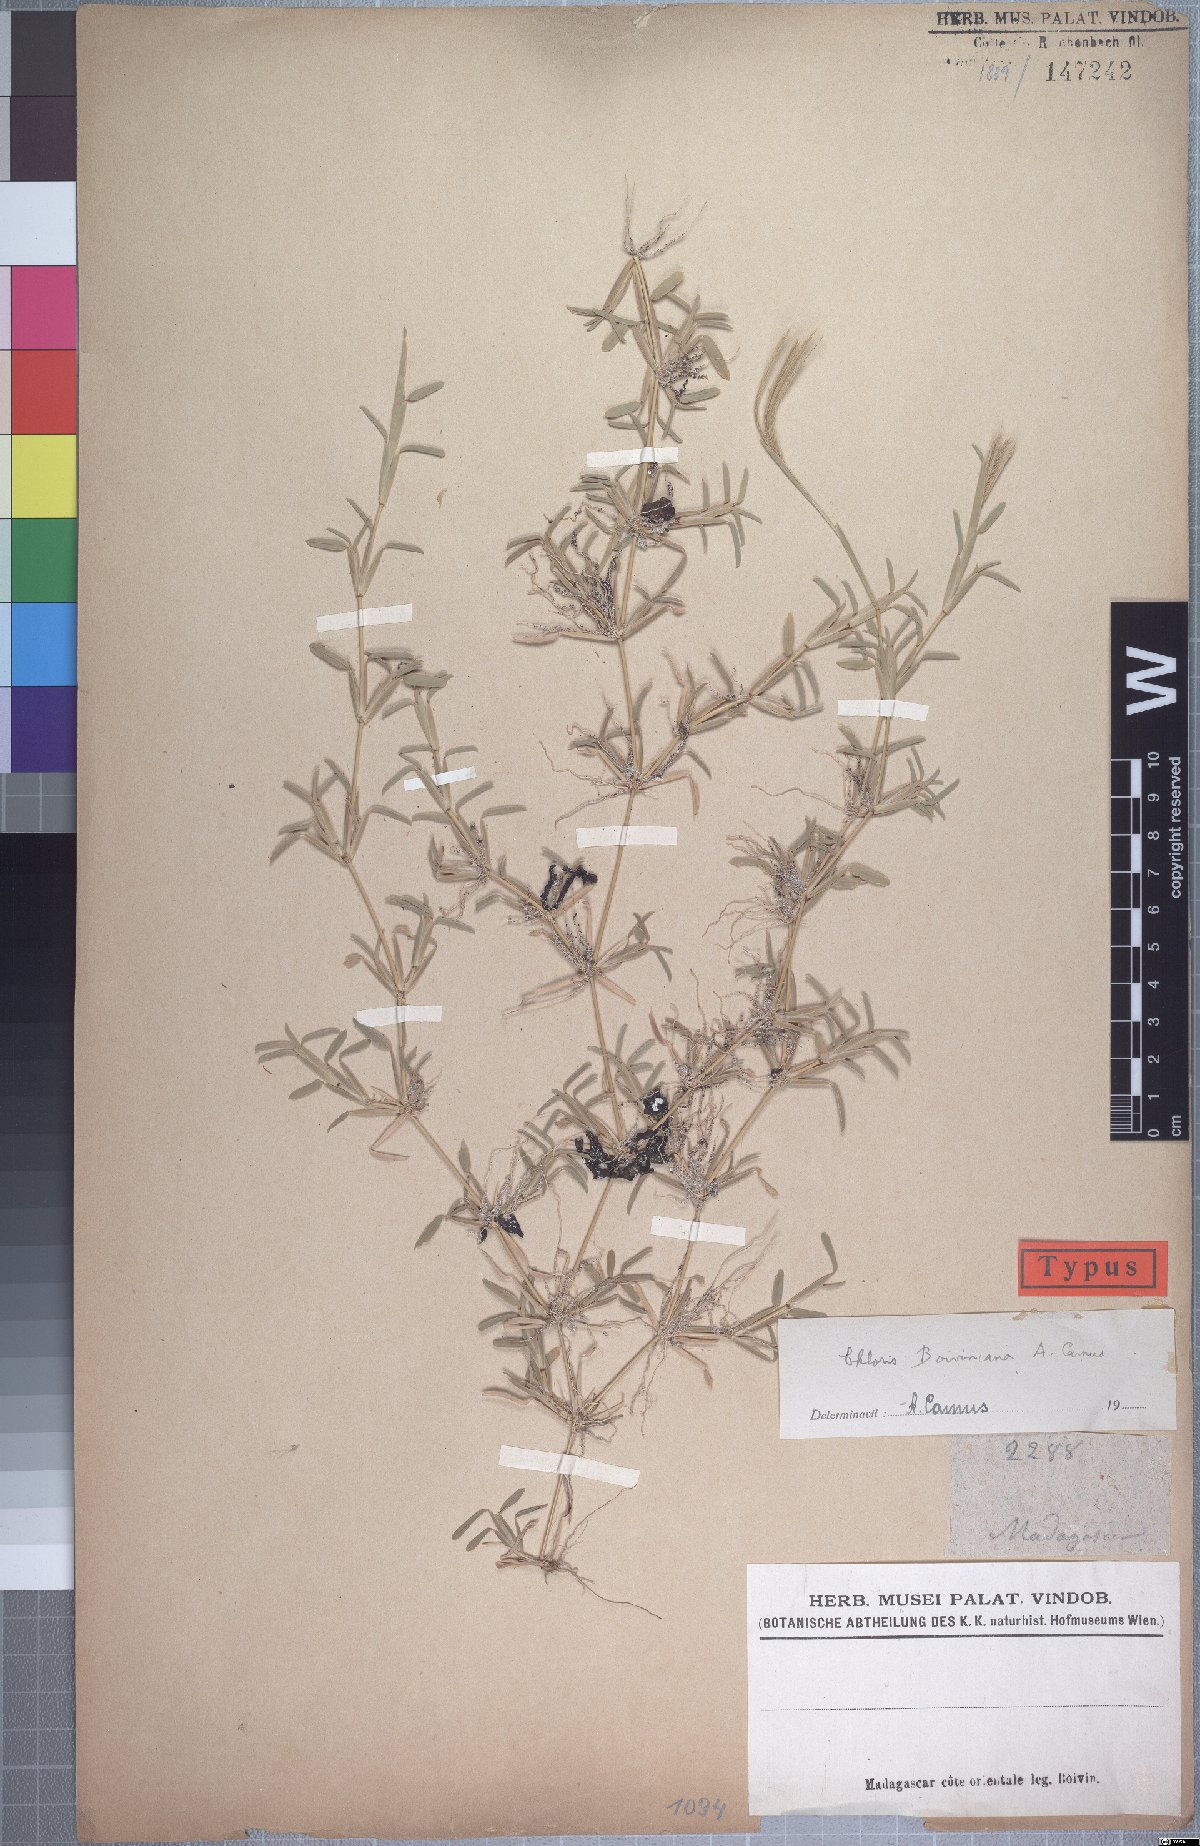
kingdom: Plantae
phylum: Tracheophyta
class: Liliopsida
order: Poales
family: Poaceae
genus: Daknopholis
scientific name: Daknopholis boivinii
